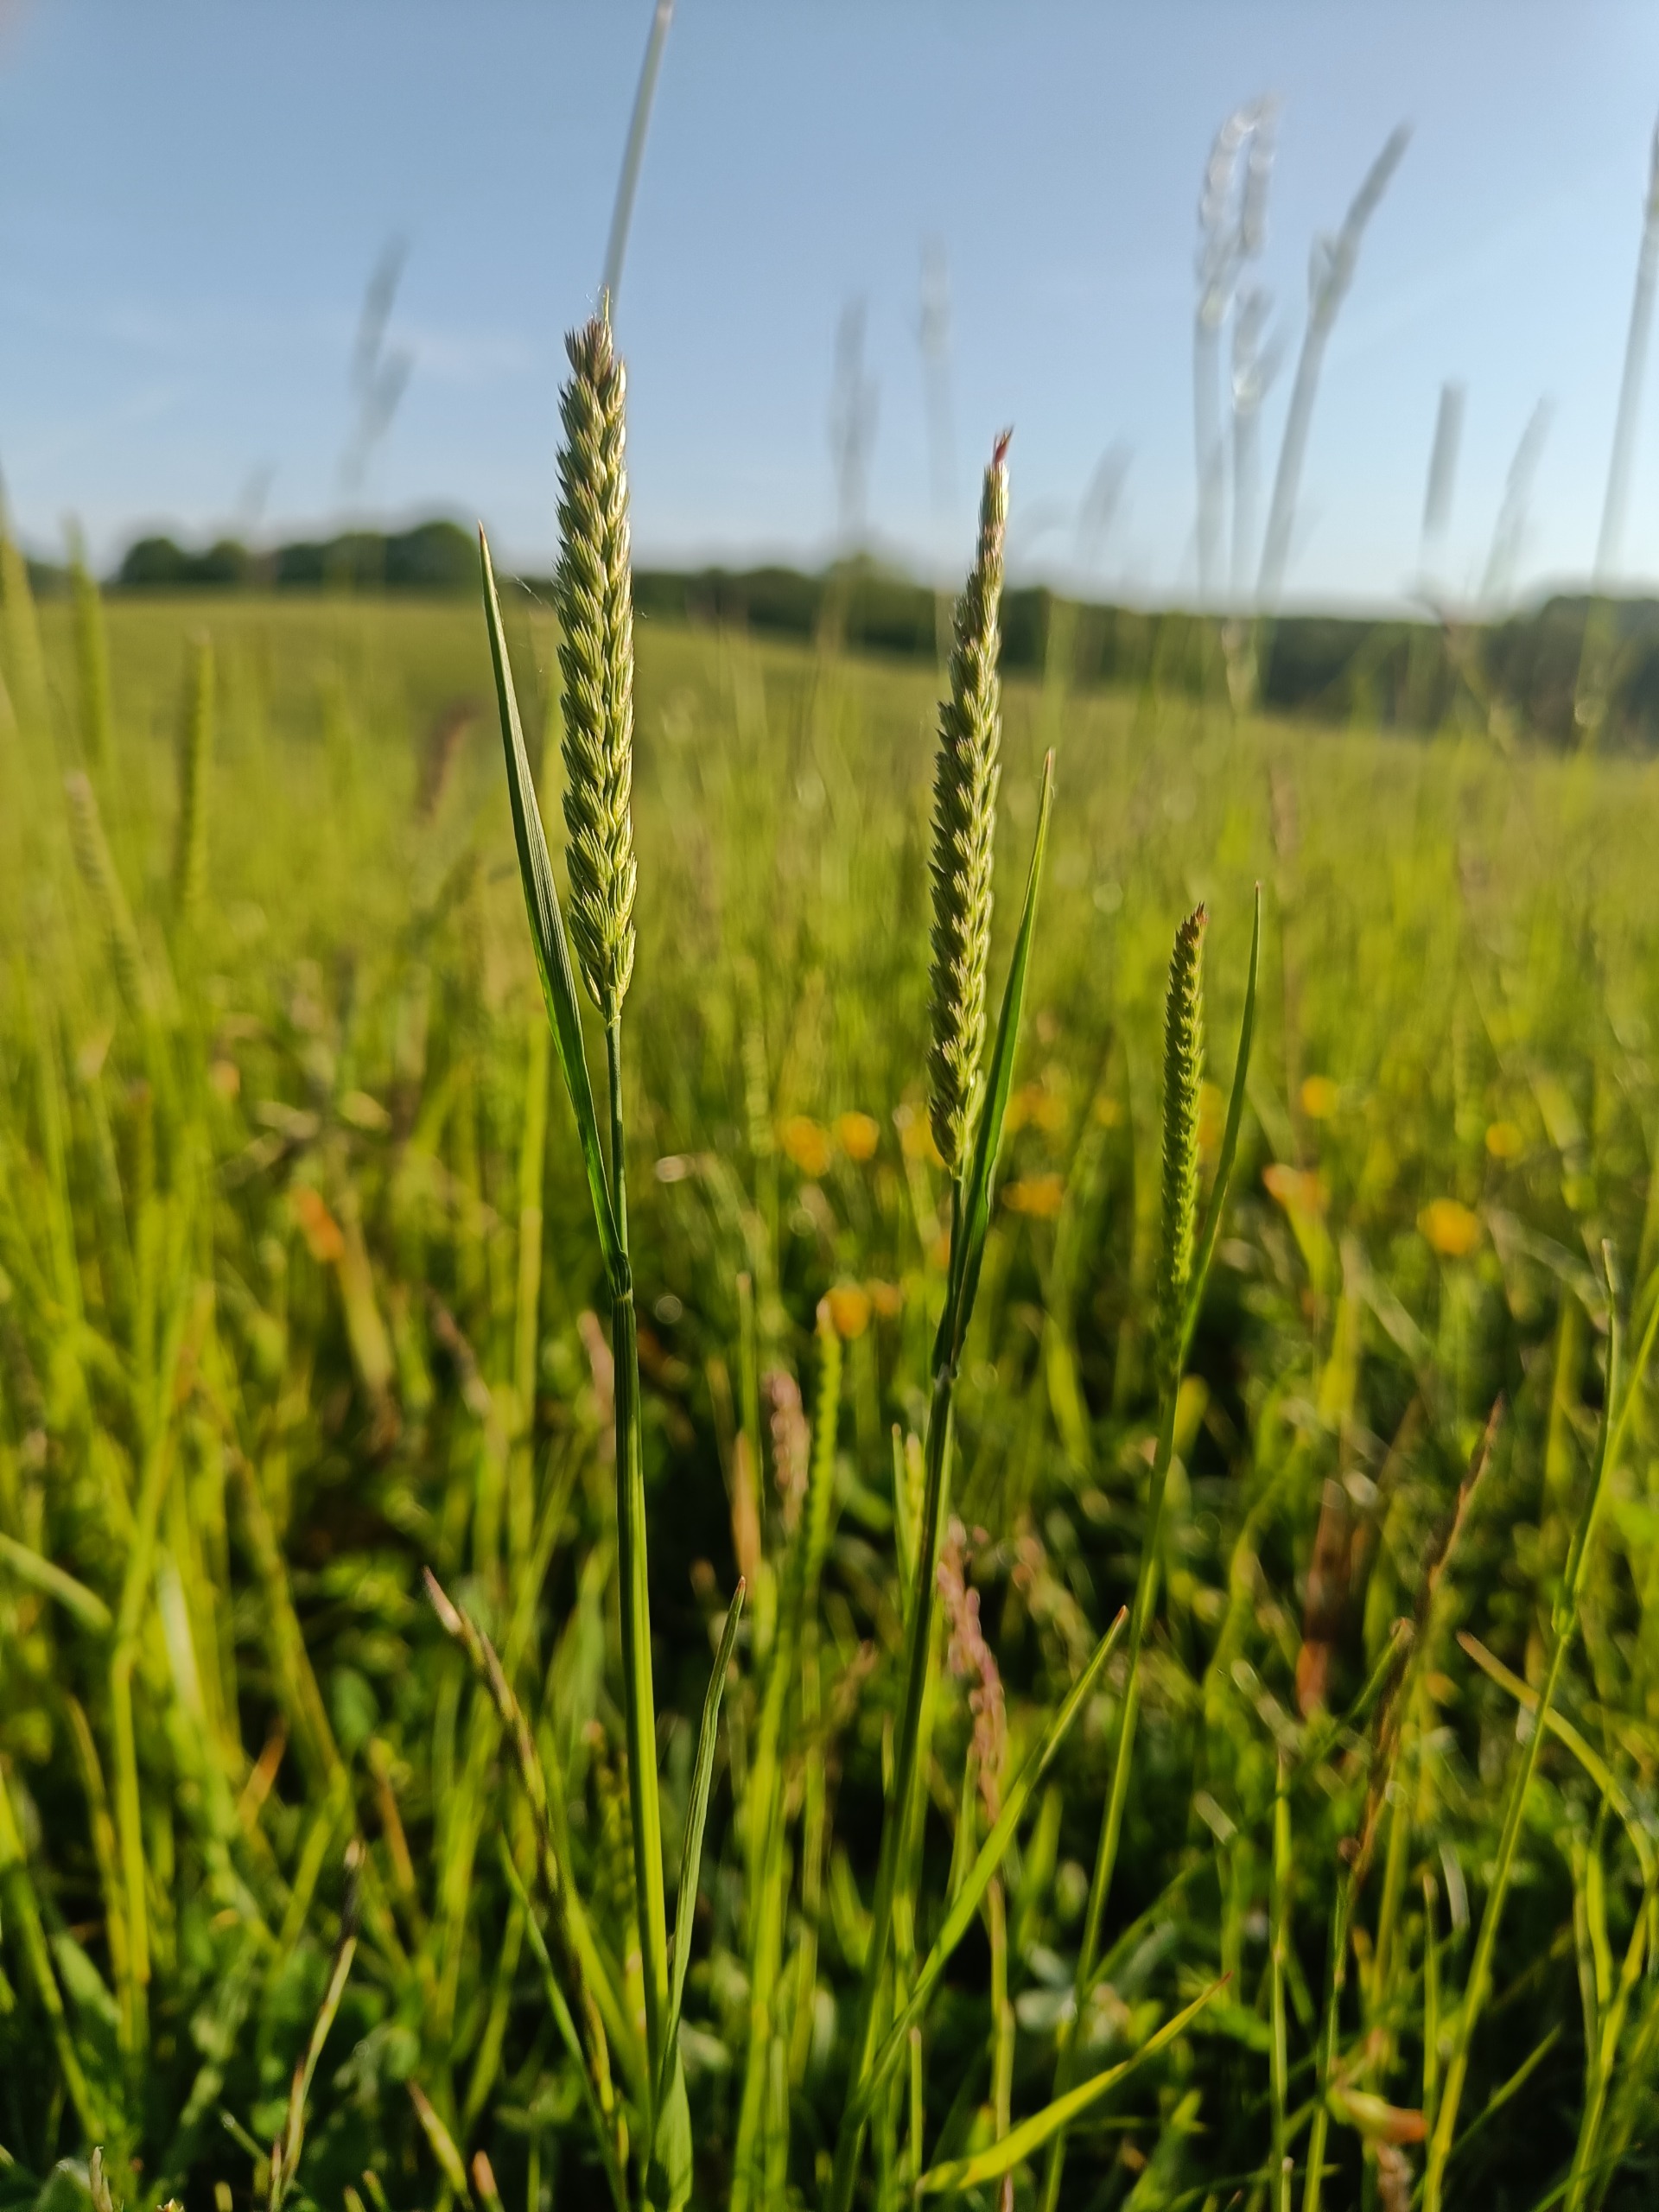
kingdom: Plantae
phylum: Tracheophyta
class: Liliopsida
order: Poales
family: Poaceae
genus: Cynosurus
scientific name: Cynosurus cristatus
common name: Kamgræs
